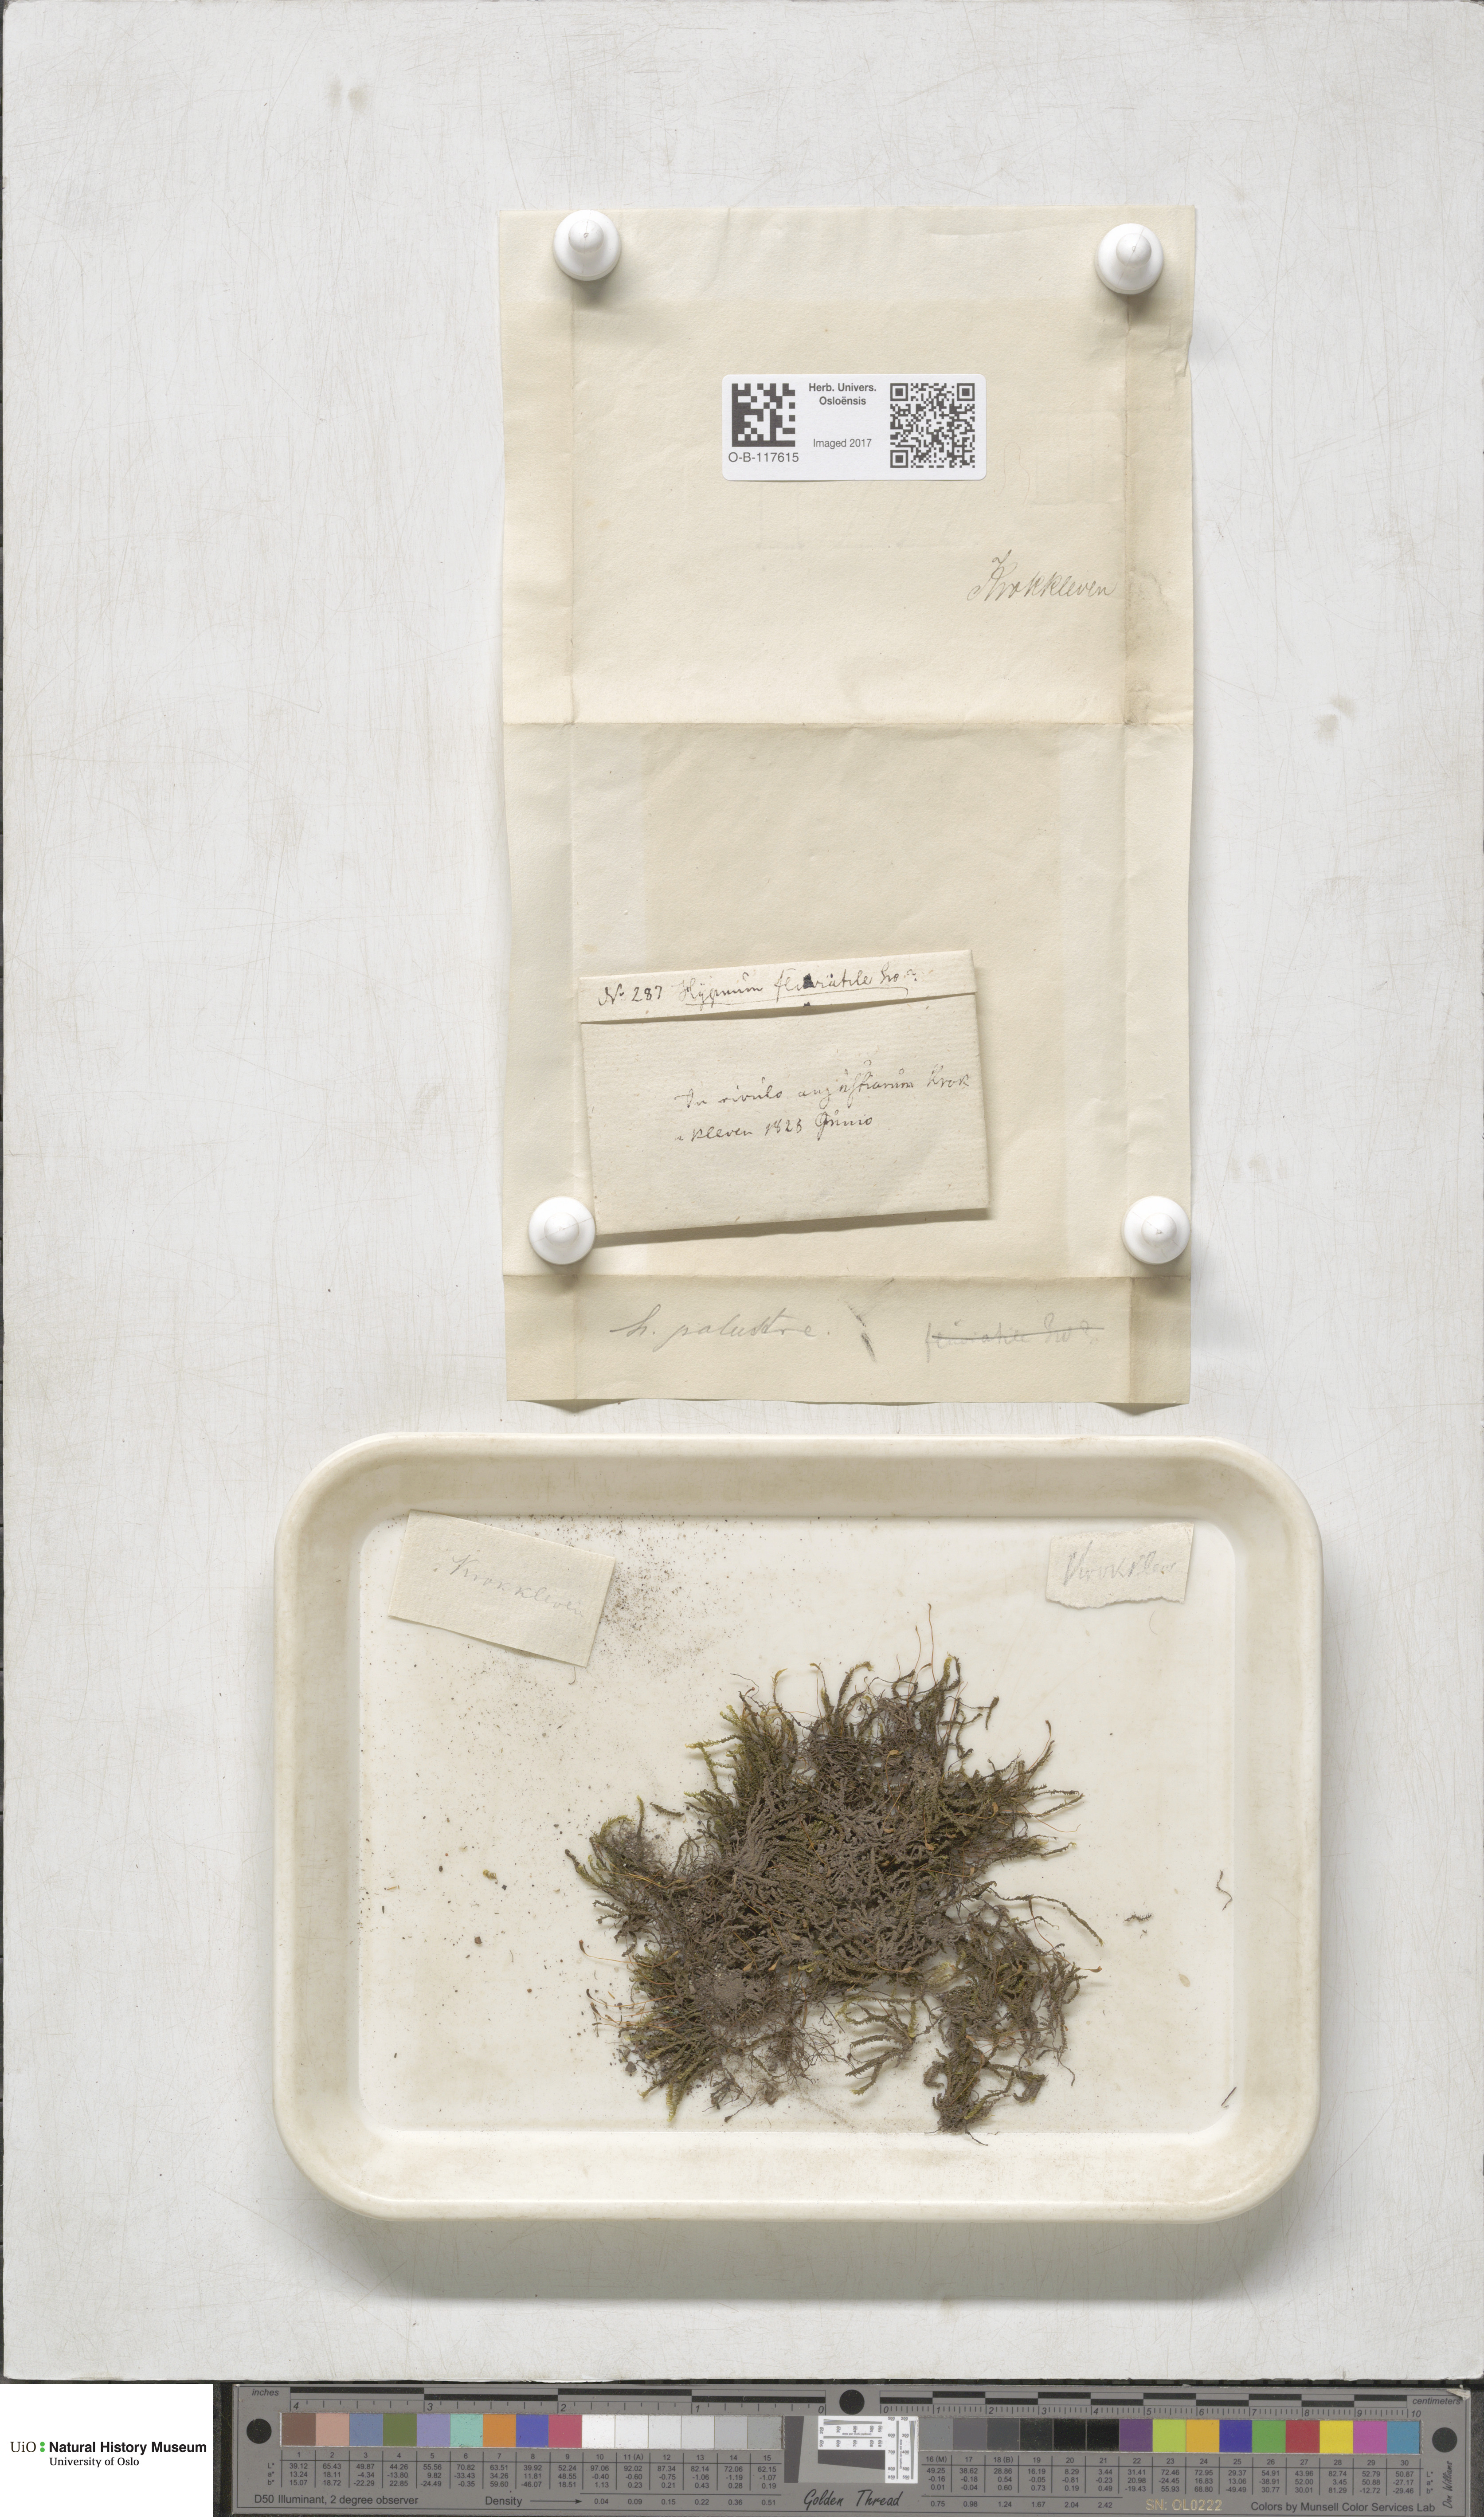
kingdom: Plantae
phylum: Bryophyta
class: Bryopsida
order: Hypnales
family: Amblystegiaceae
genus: Hygrohypnum
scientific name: Hygrohypnum luridum
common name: Drab brook moss
